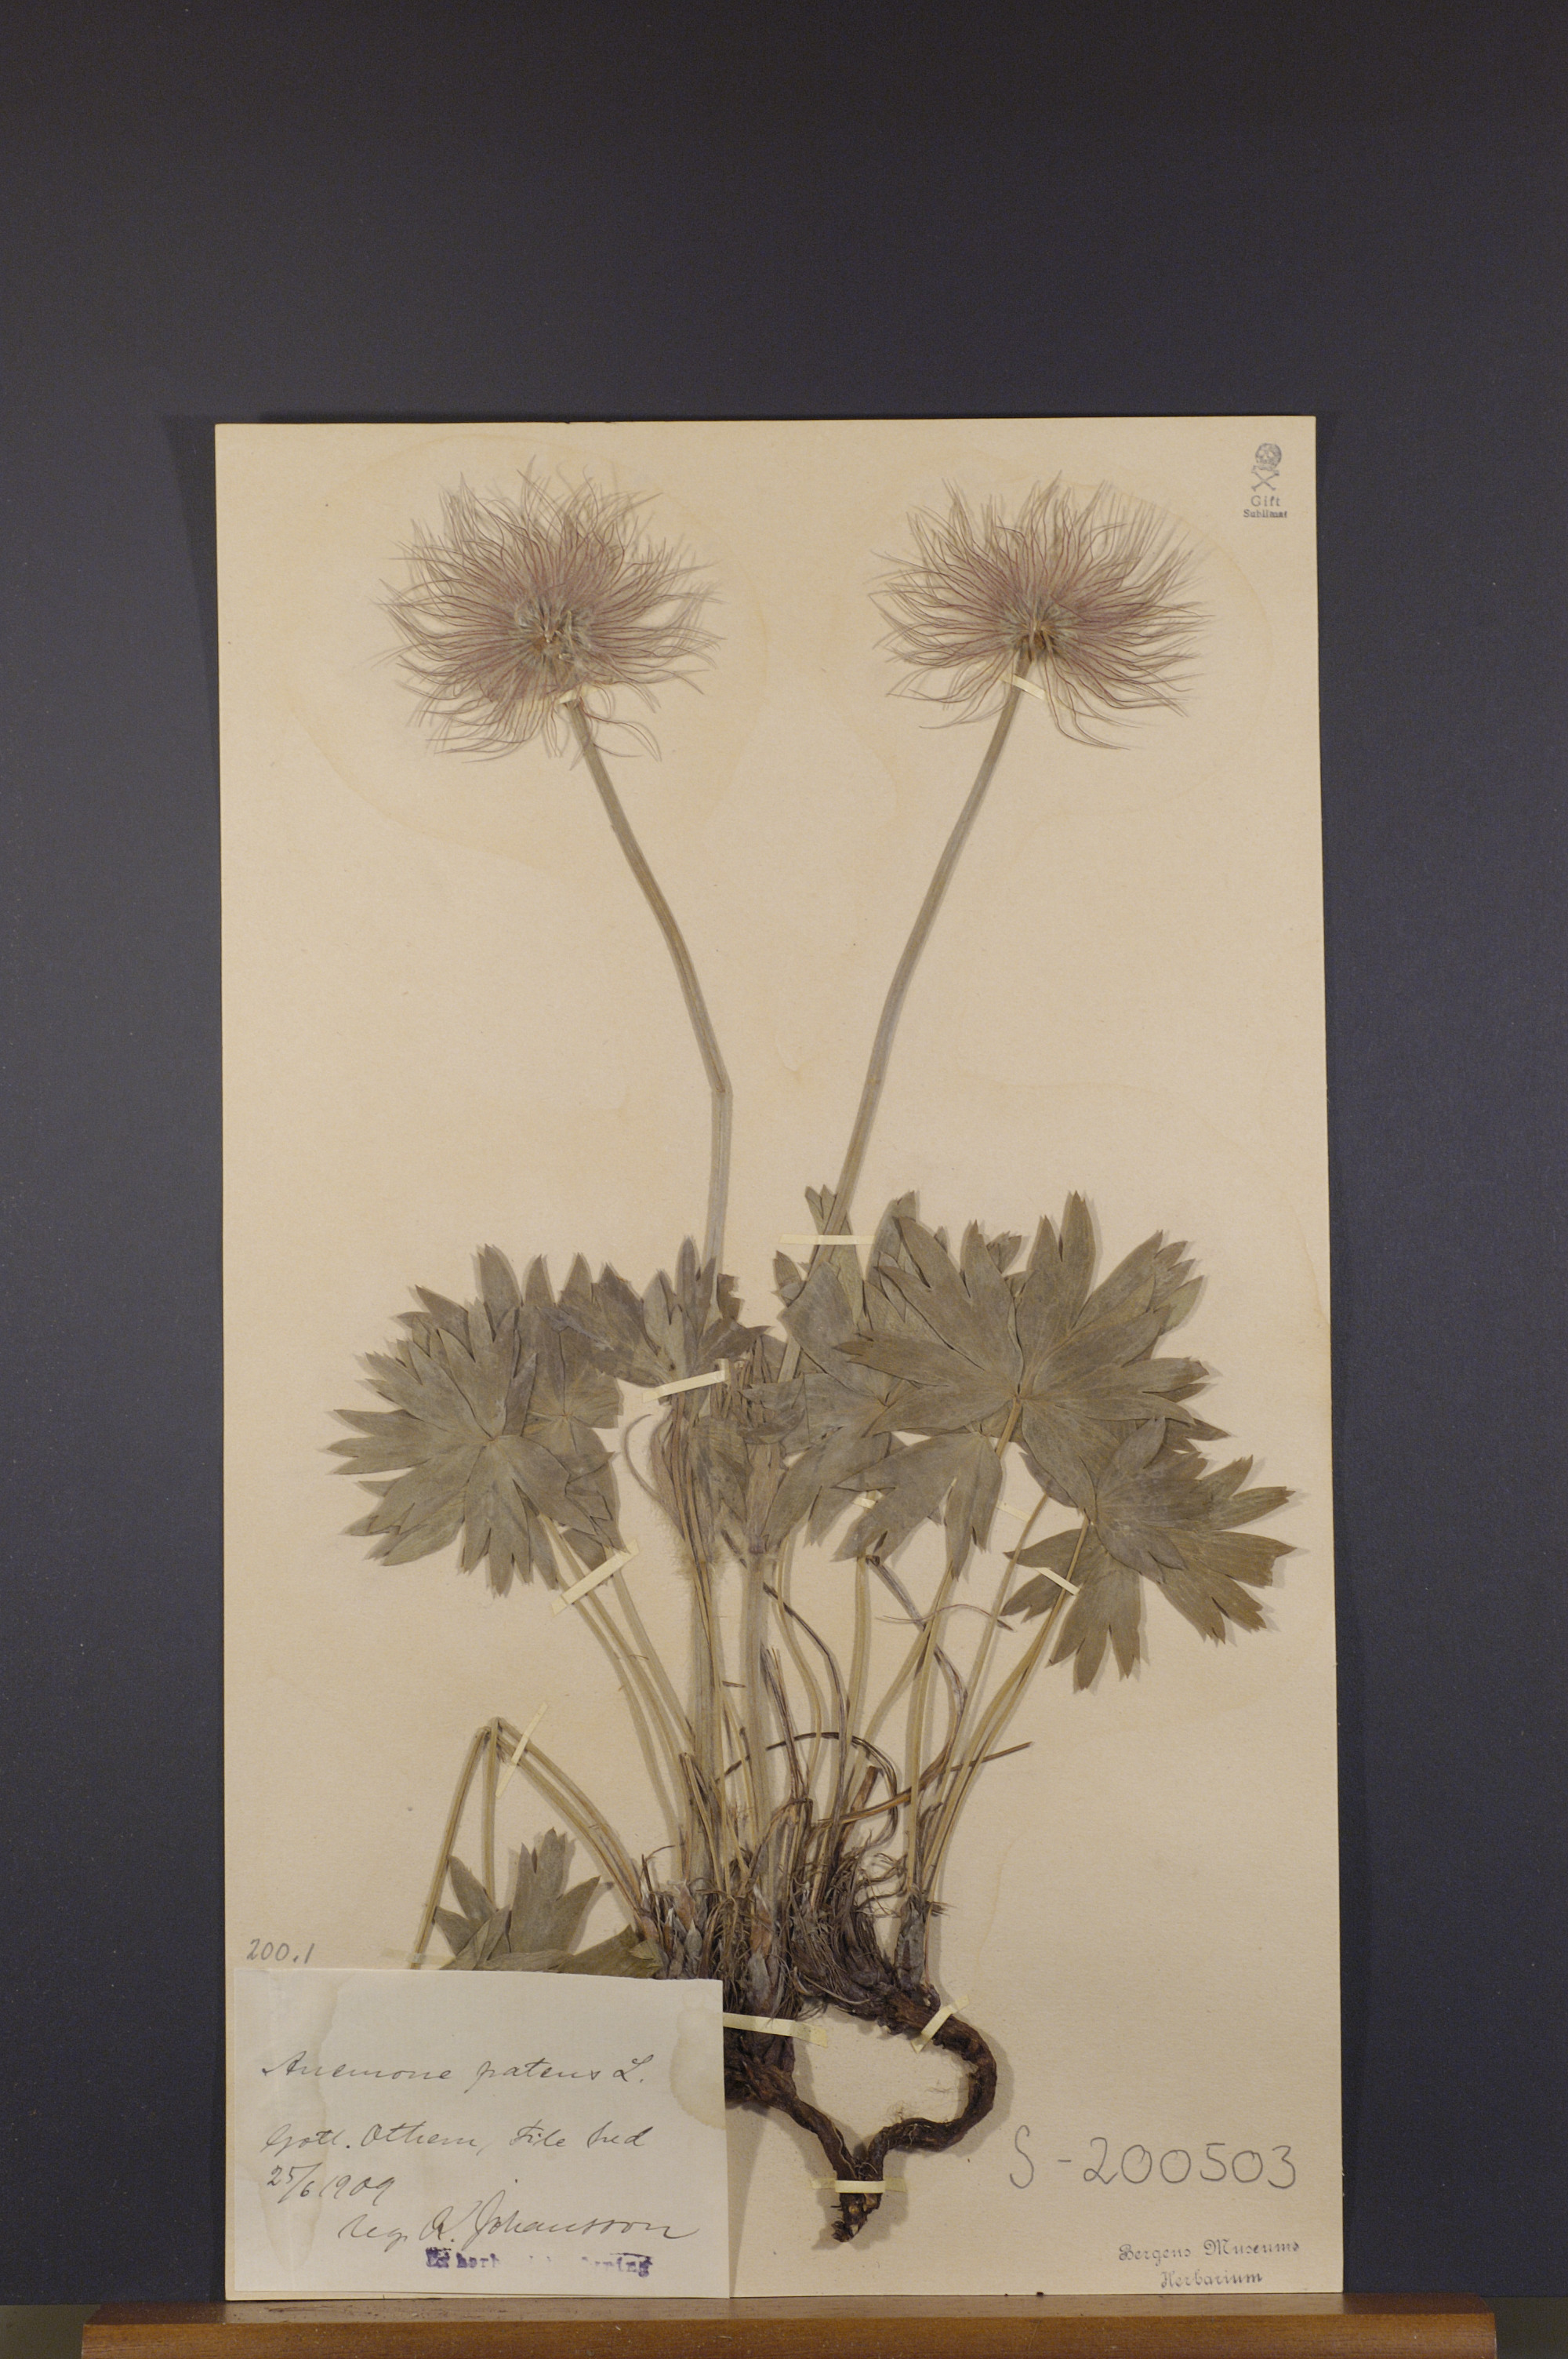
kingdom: Plantae
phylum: Tracheophyta
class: Magnoliopsida
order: Ranunculales
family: Ranunculaceae
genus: Pulsatilla
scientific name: Pulsatilla patens
